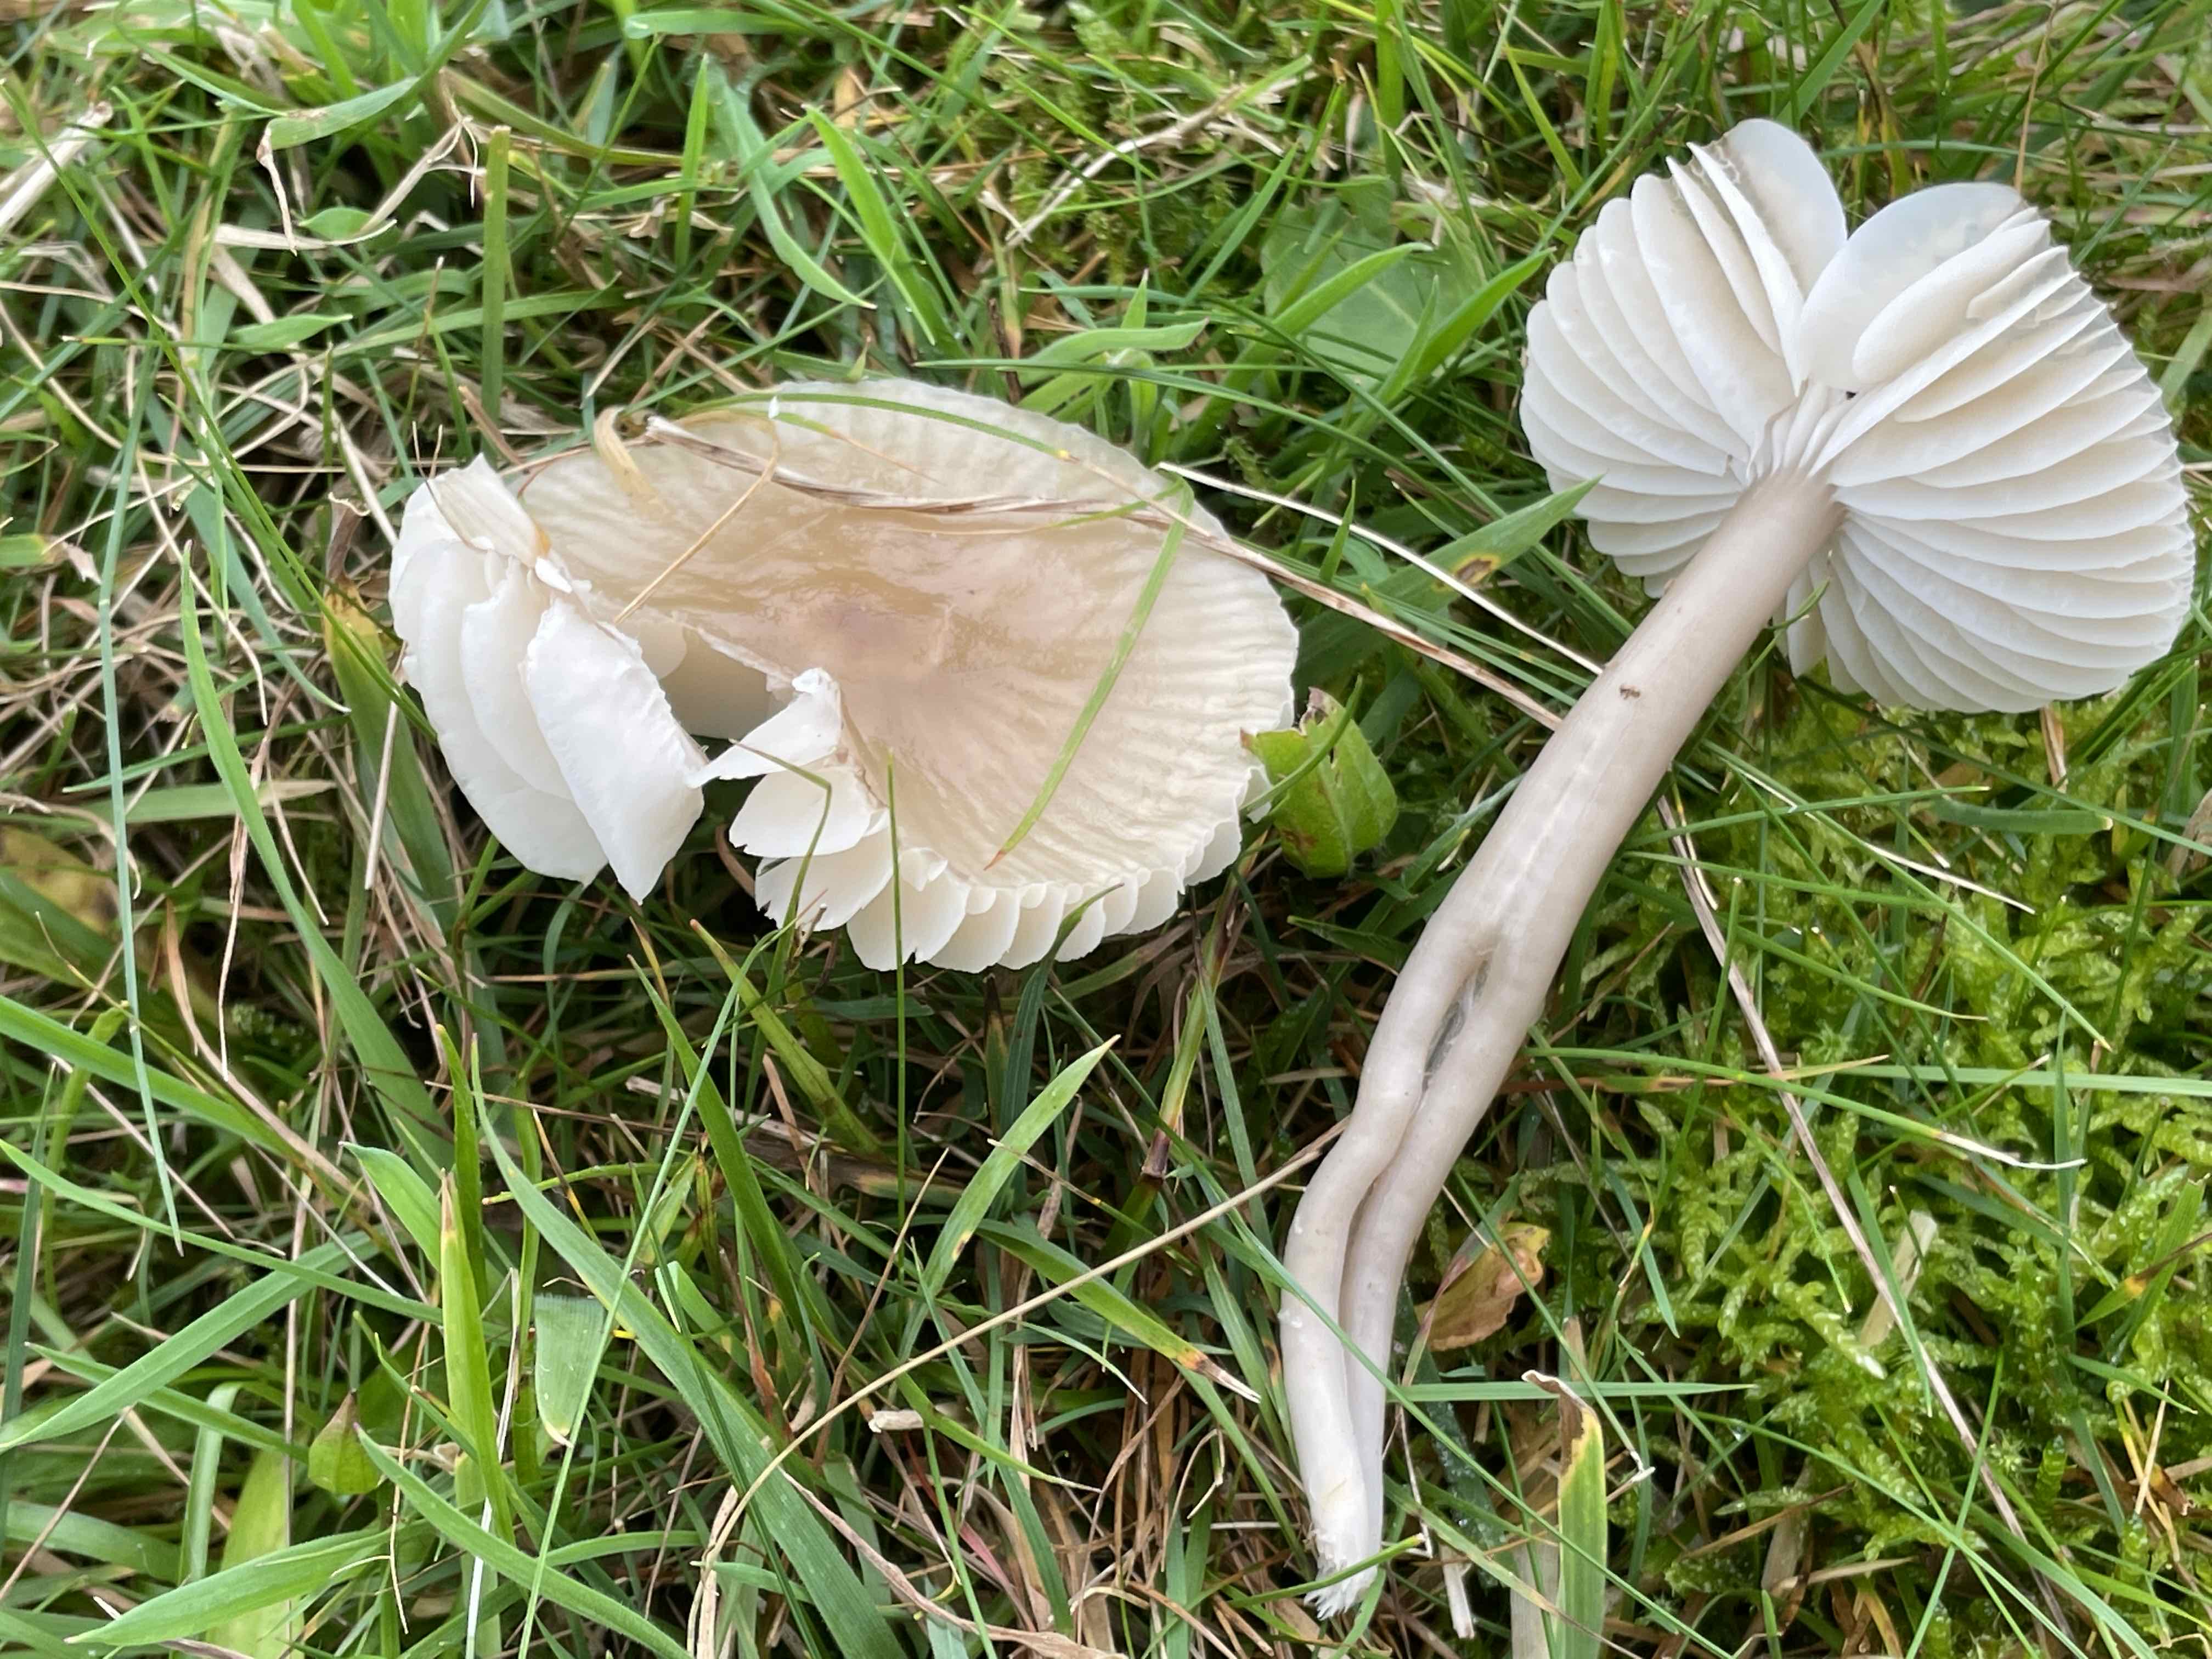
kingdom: Fungi
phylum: Basidiomycota
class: Agaricomycetes
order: Agaricales
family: Hygrophoraceae
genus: Gliophorus
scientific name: Gliophorus irrigatus
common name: slimet vokshat
